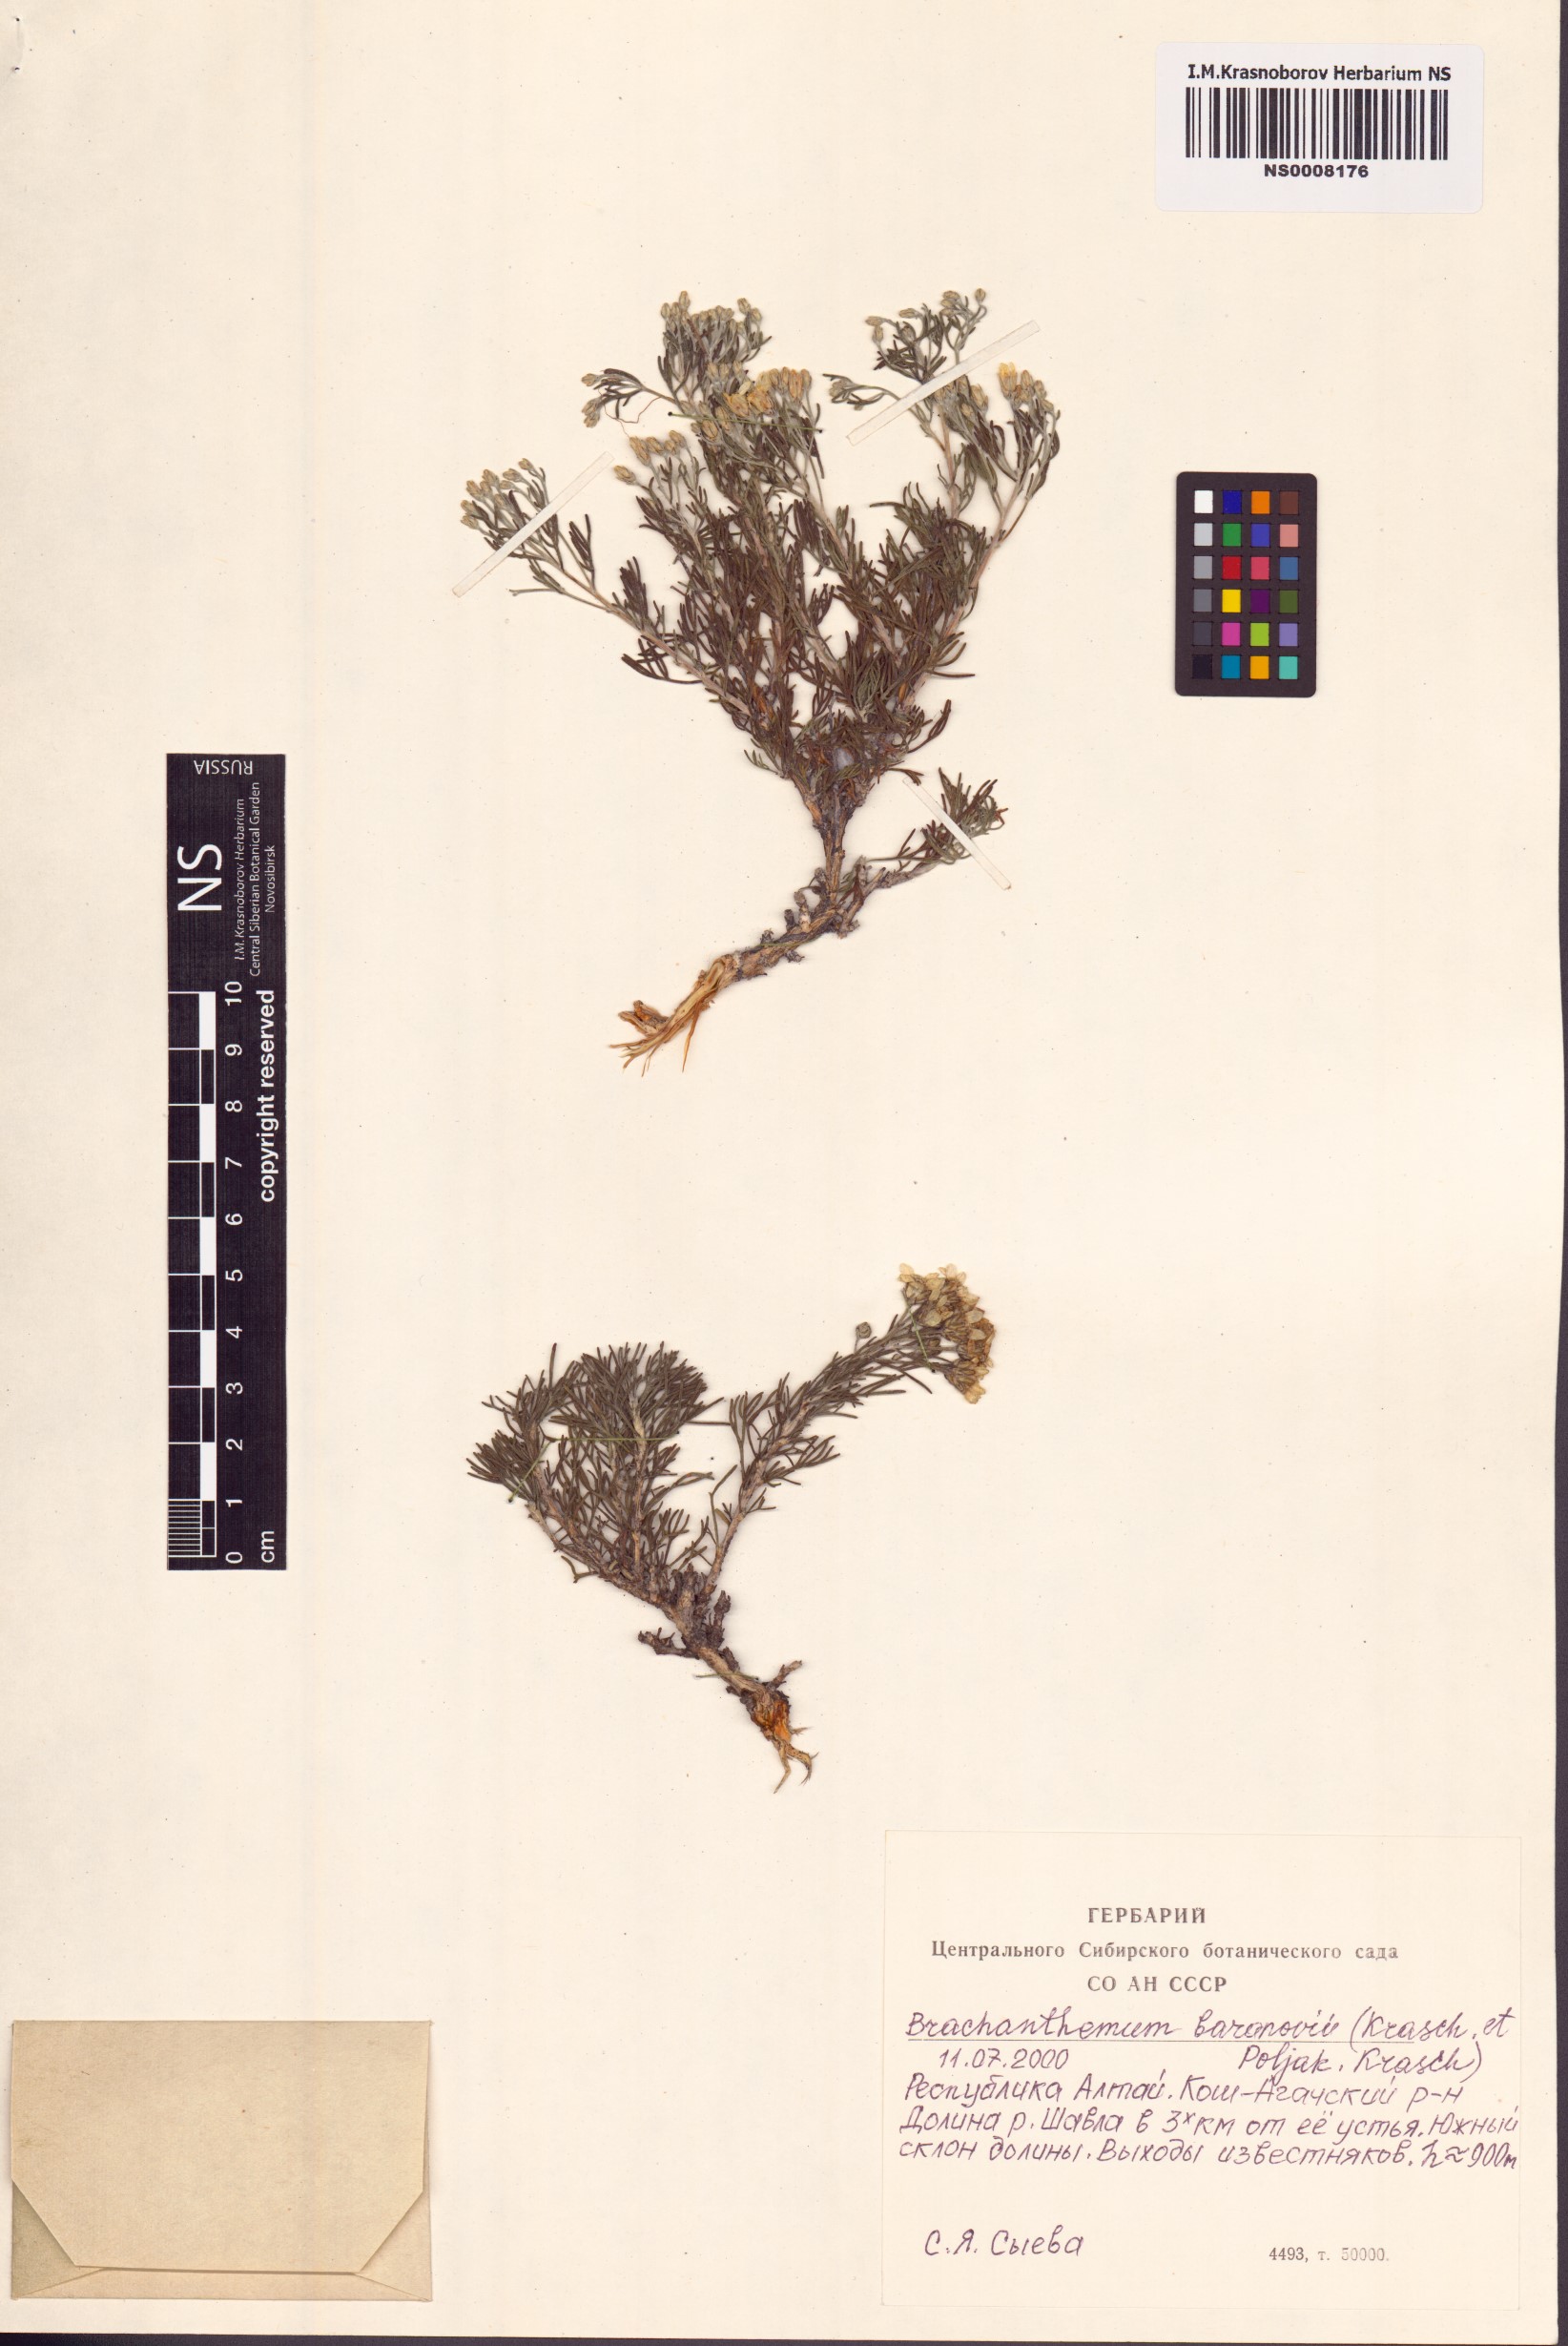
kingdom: Plantae
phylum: Tracheophyta
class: Magnoliopsida
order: Asterales
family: Asteraceae
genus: Brachanthemum
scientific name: Brachanthemum baranovii
